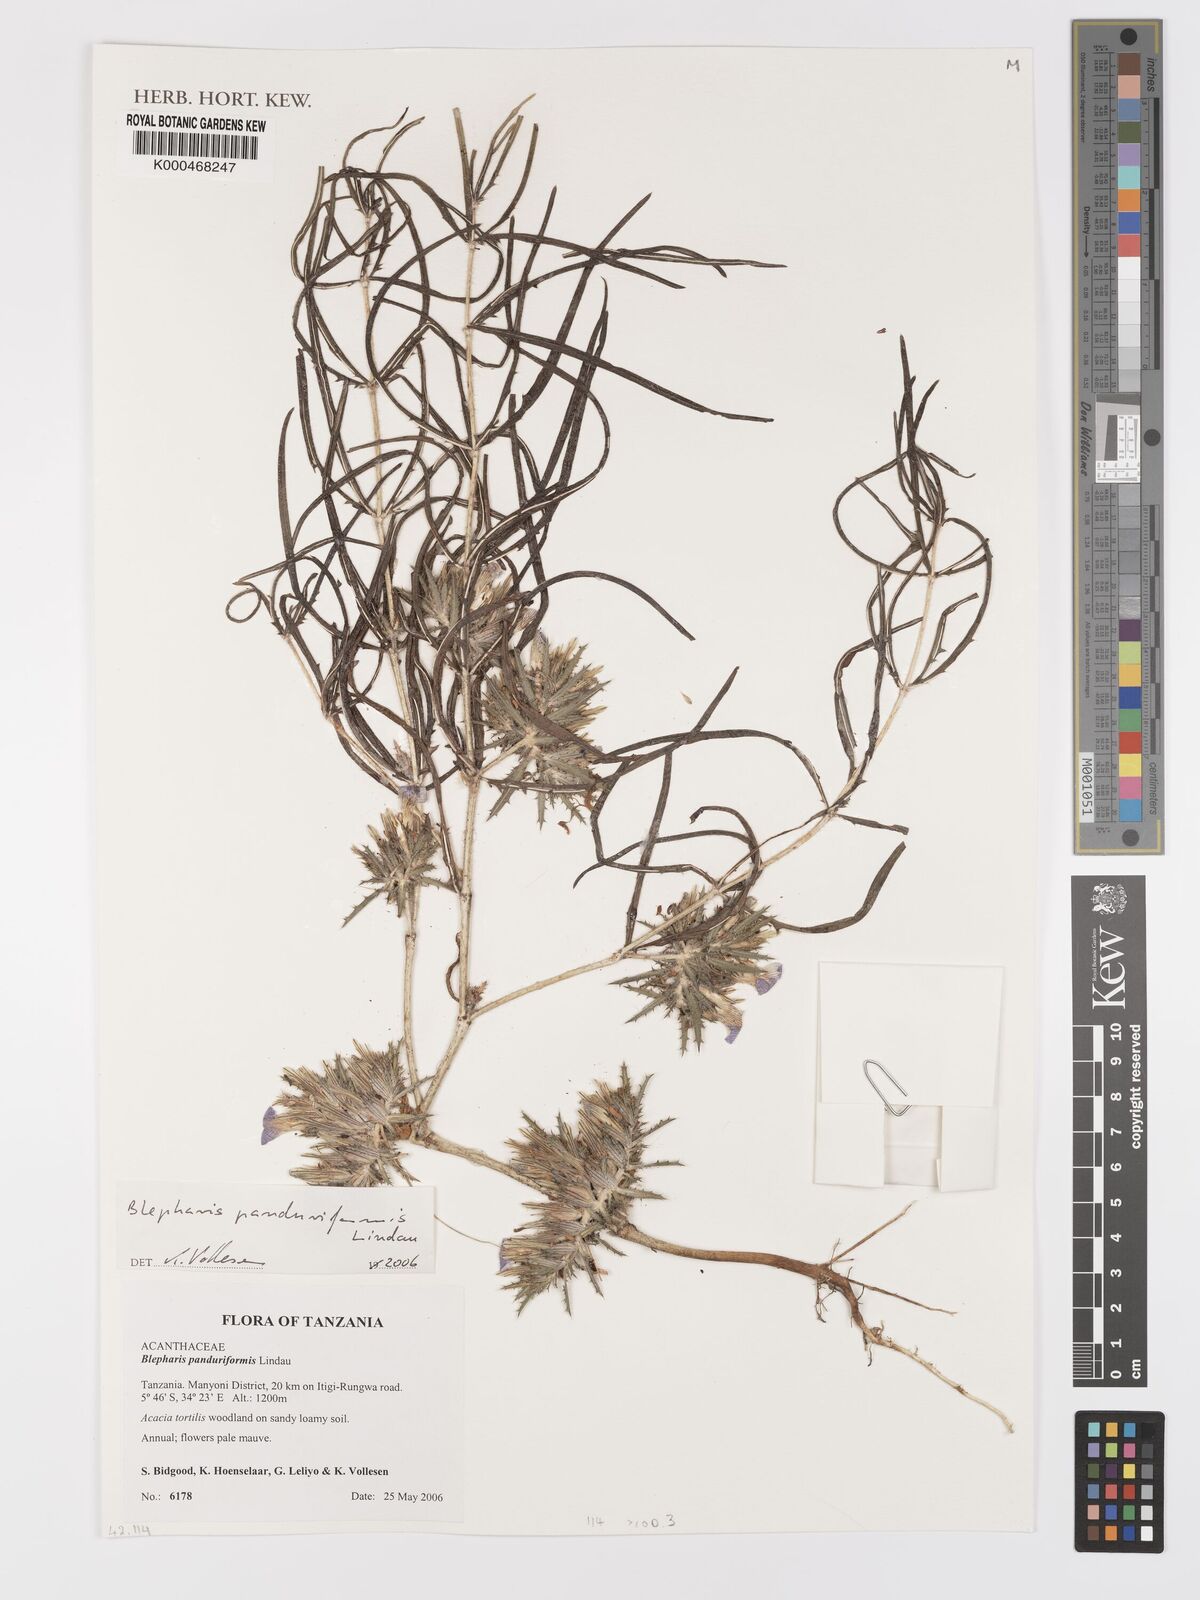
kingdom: Plantae
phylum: Tracheophyta
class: Magnoliopsida
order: Lamiales
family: Acanthaceae
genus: Blepharis
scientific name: Blepharis panduriformis
